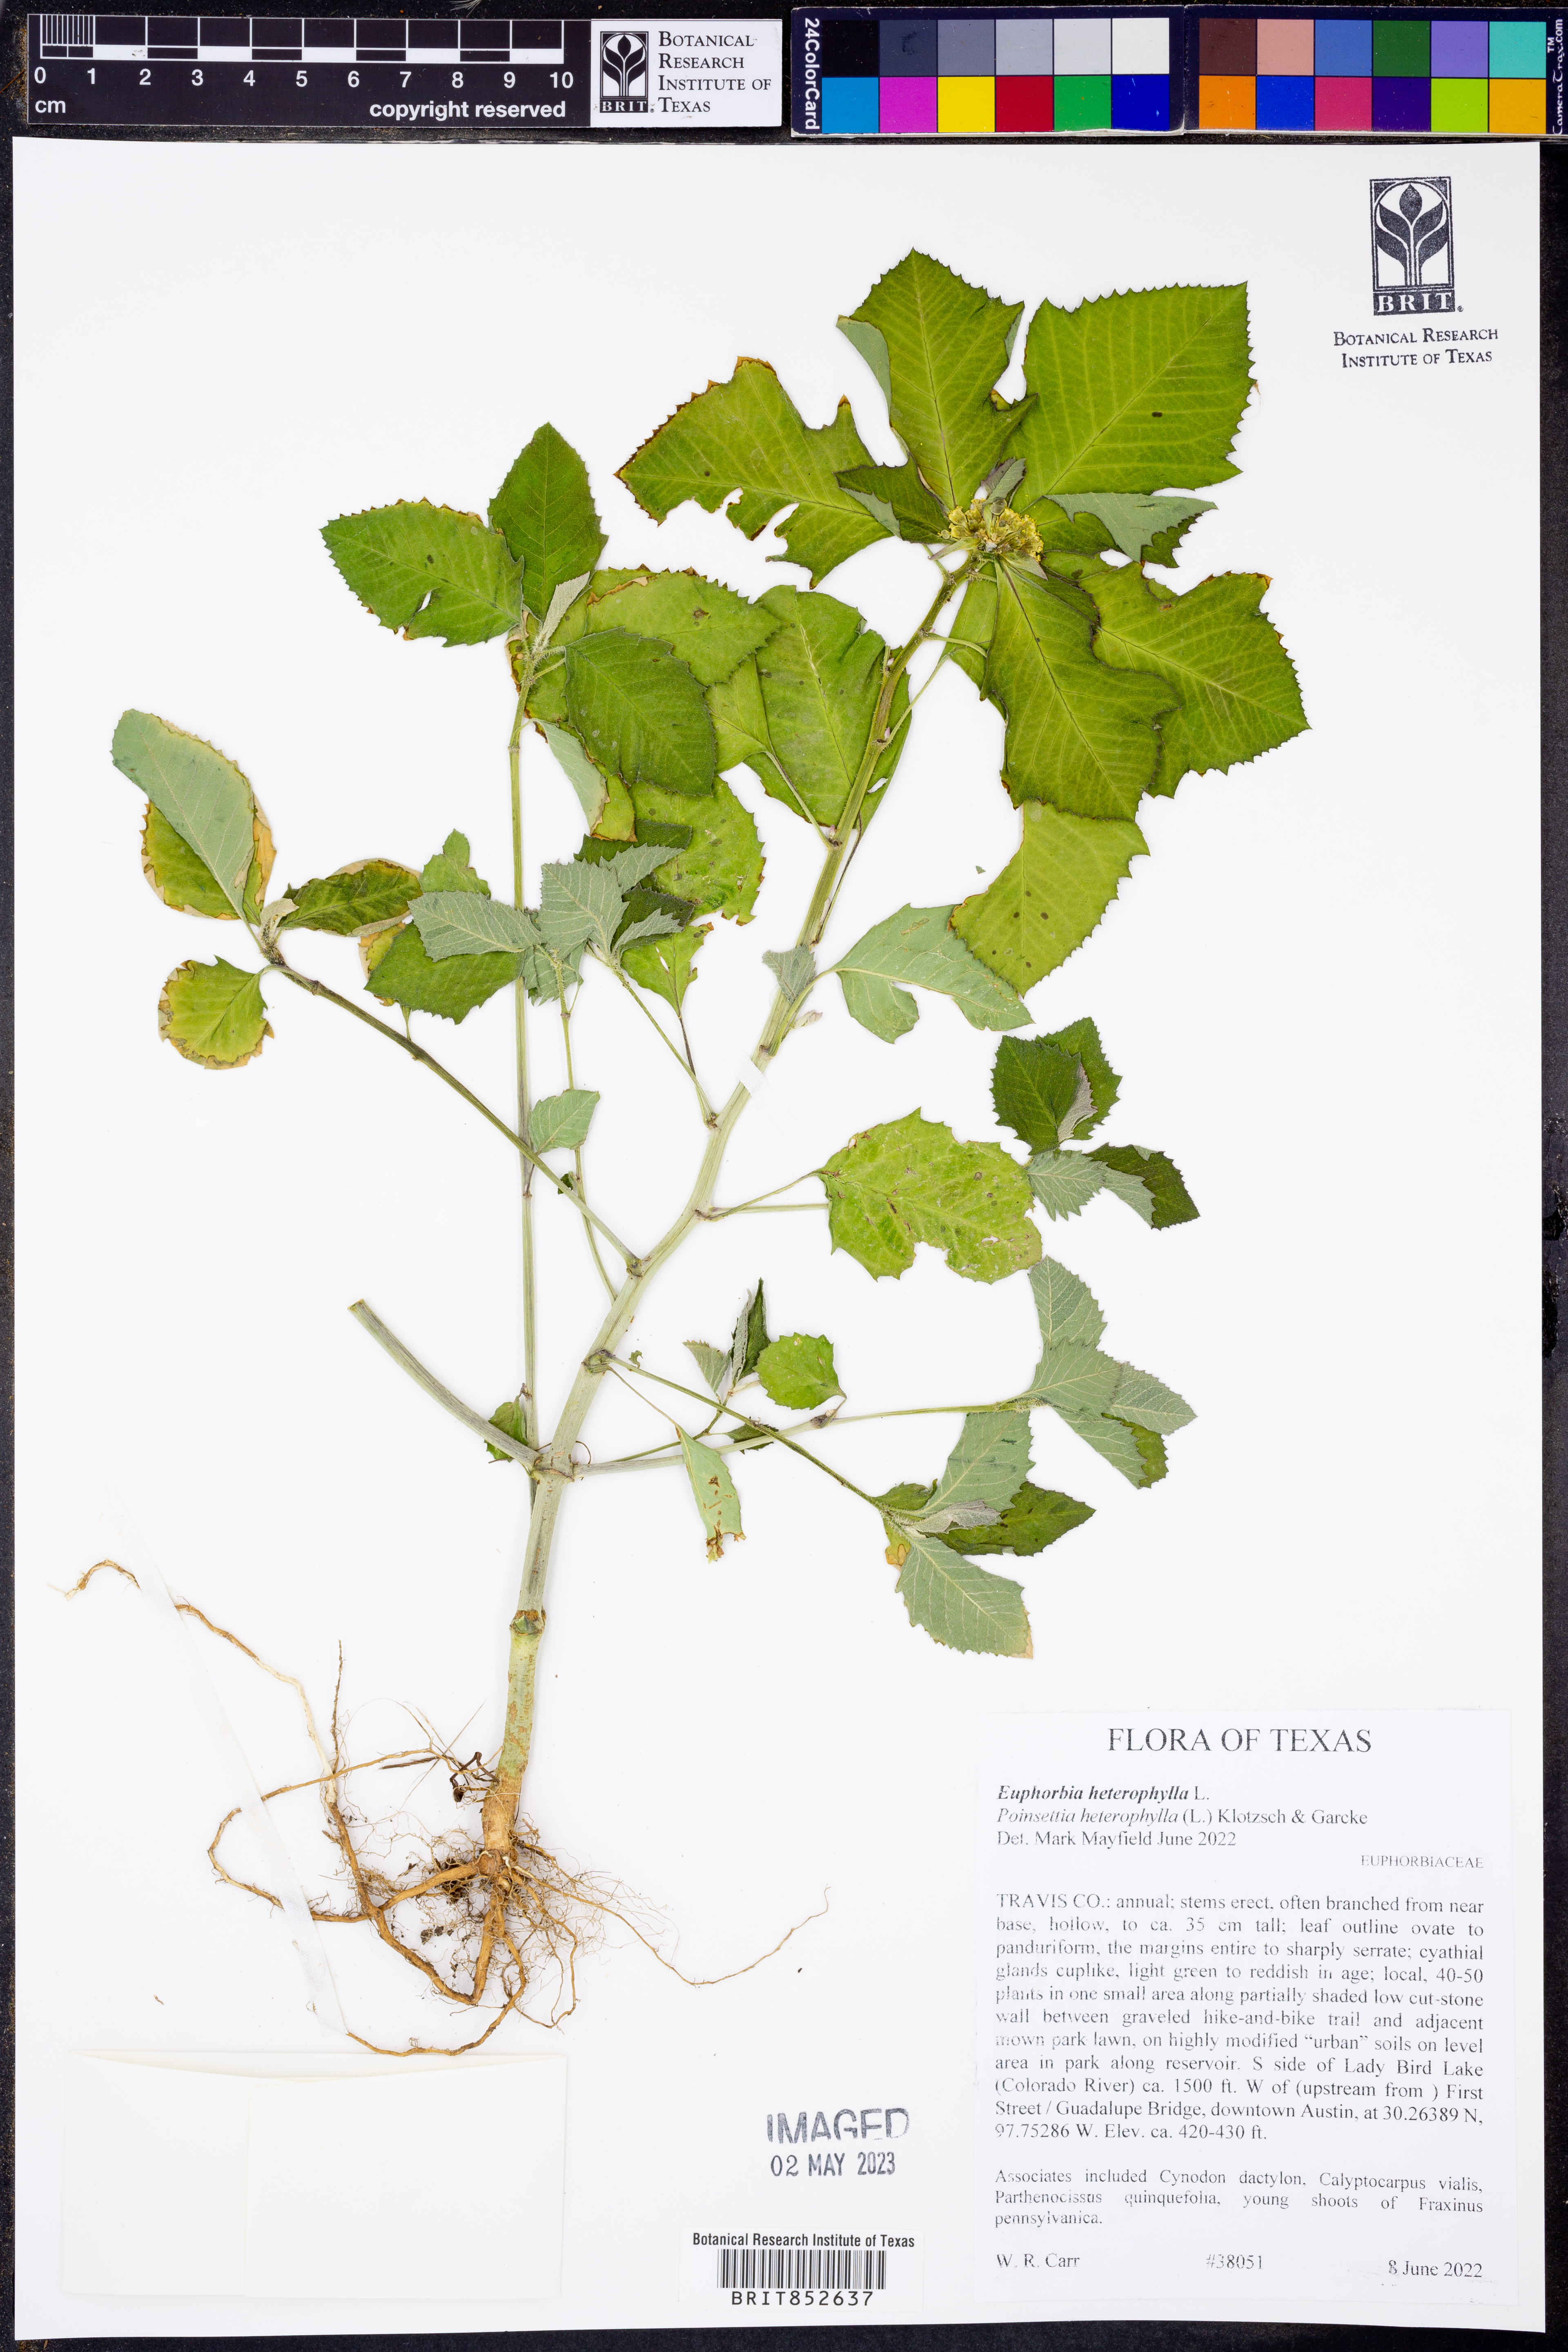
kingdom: Plantae
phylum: Tracheophyta
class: Magnoliopsida
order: Malpighiales
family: Euphorbiaceae
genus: Euphorbia
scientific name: Euphorbia heterophylla
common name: Mexican fireplant
